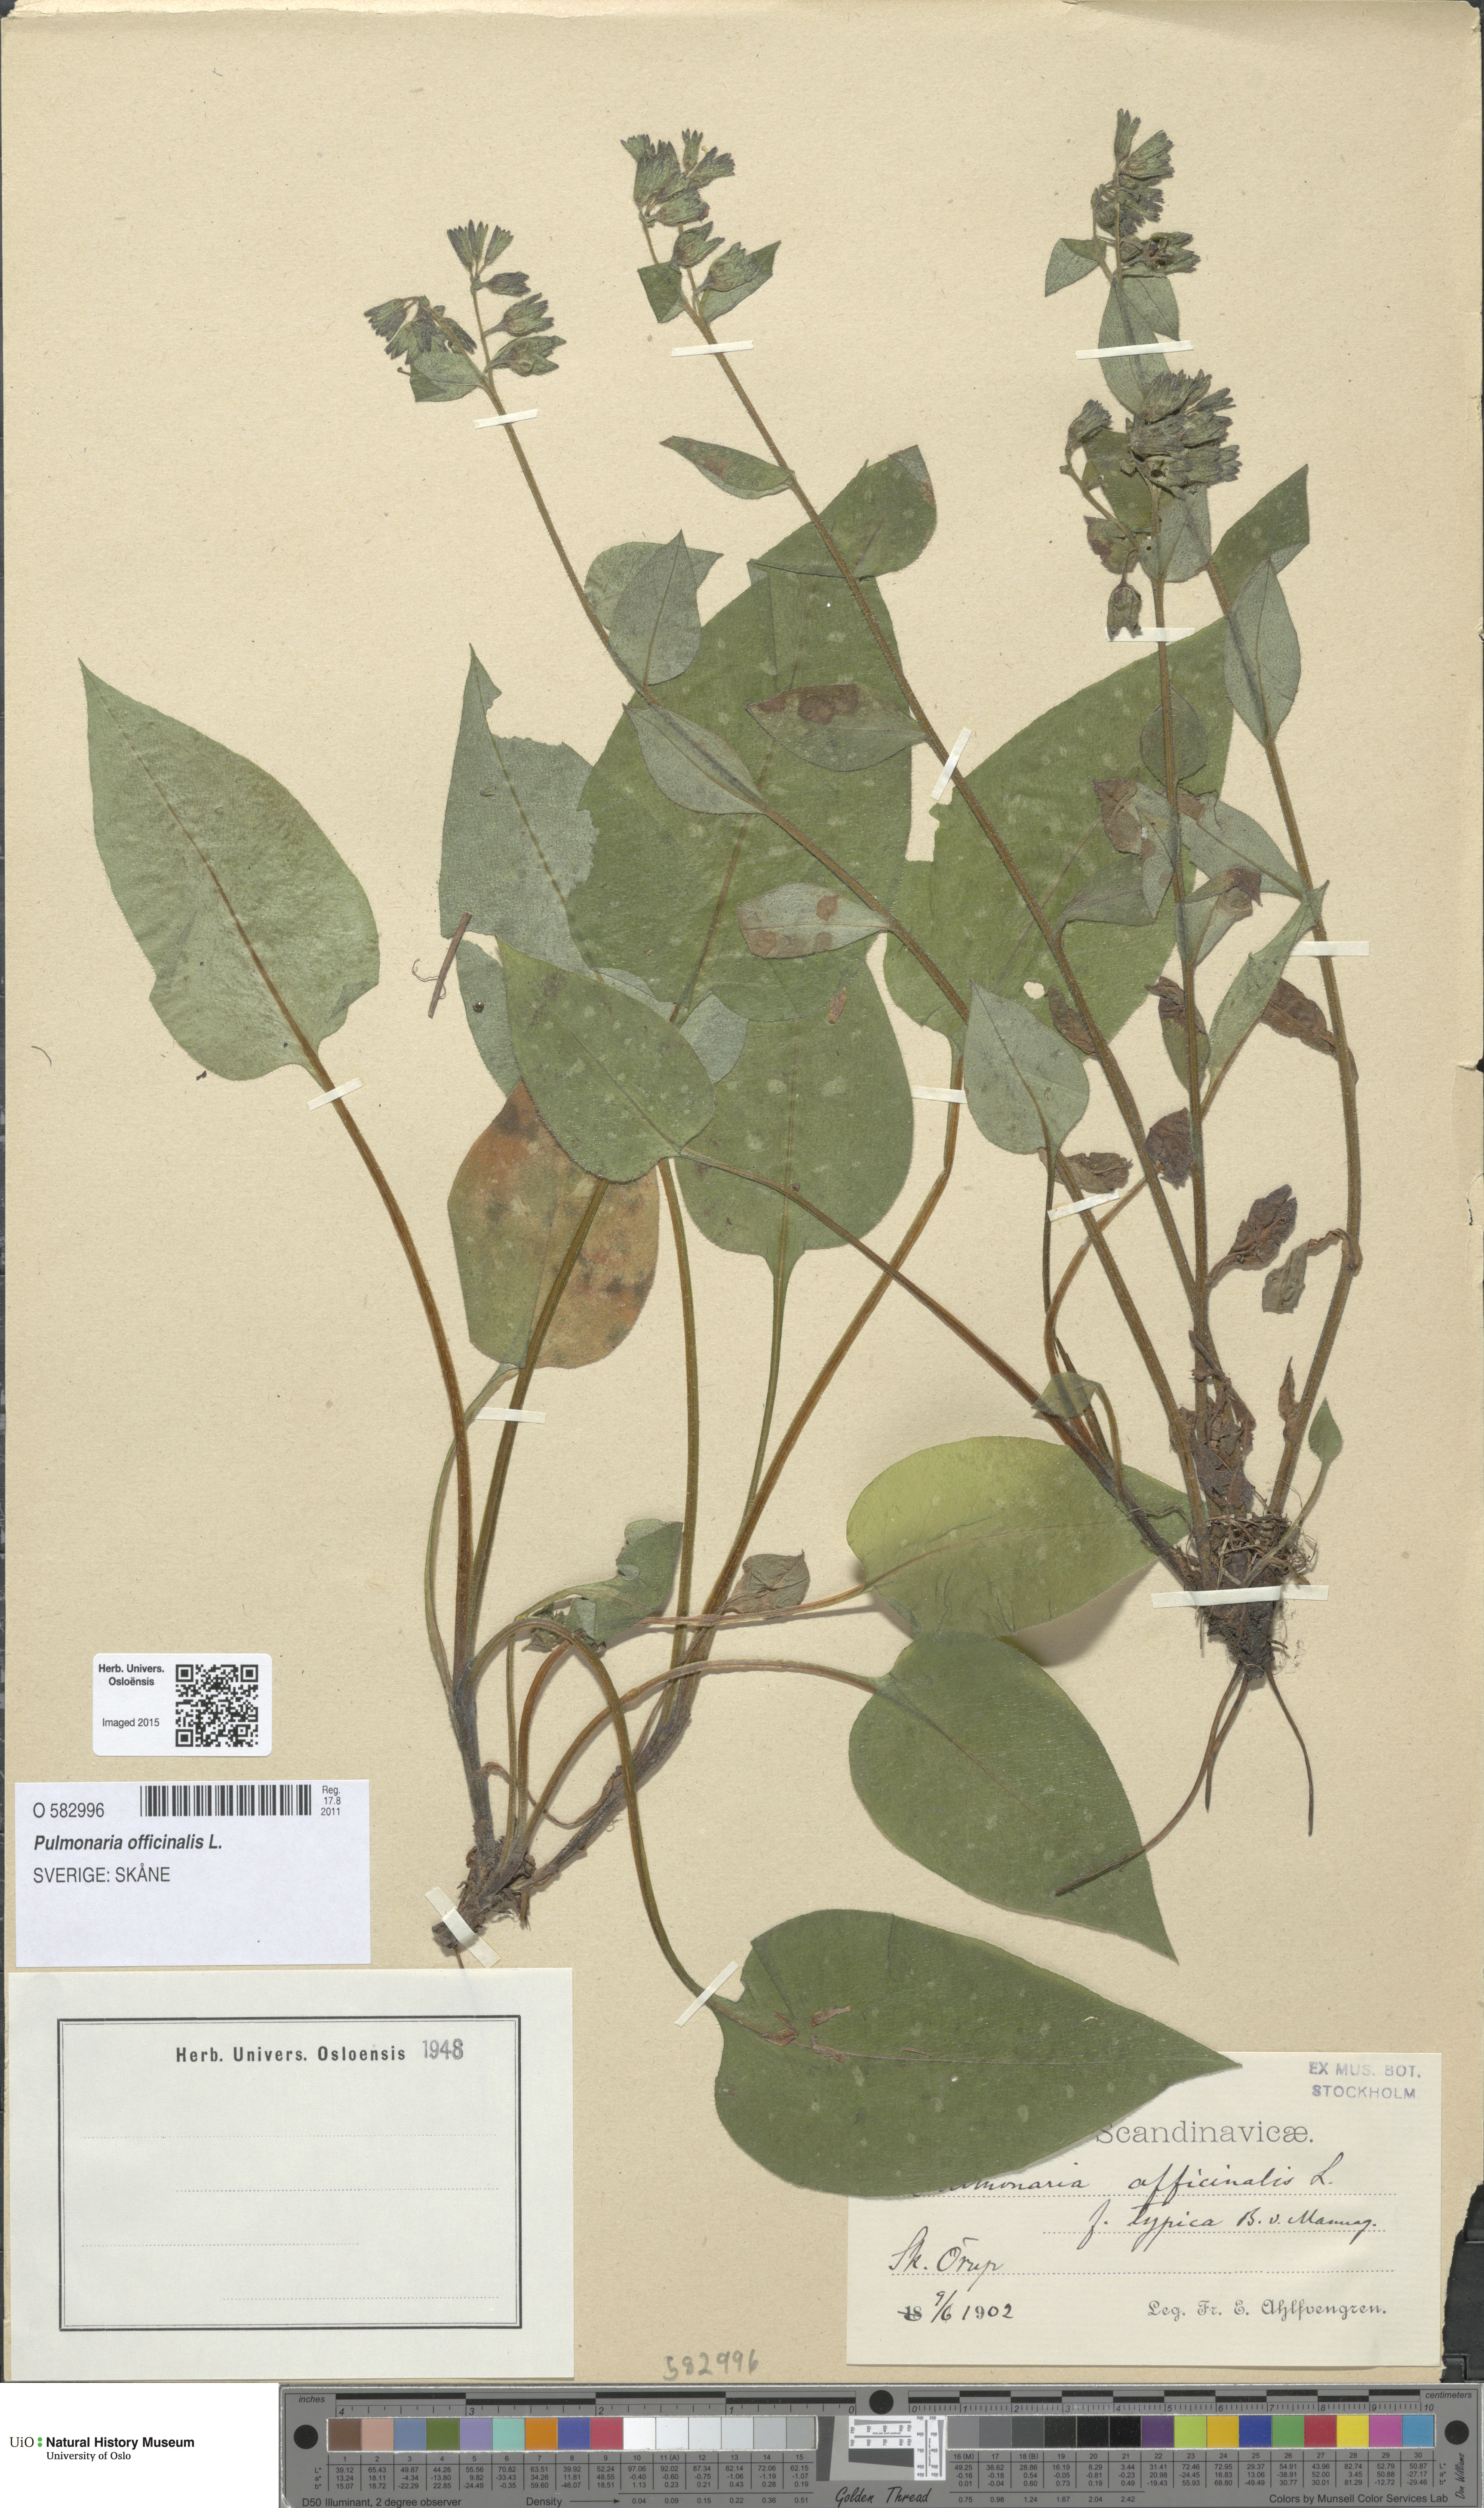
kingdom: Plantae
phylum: Tracheophyta
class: Magnoliopsida
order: Boraginales
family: Boraginaceae
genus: Pulmonaria
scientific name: Pulmonaria officinalis
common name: Lungwort
